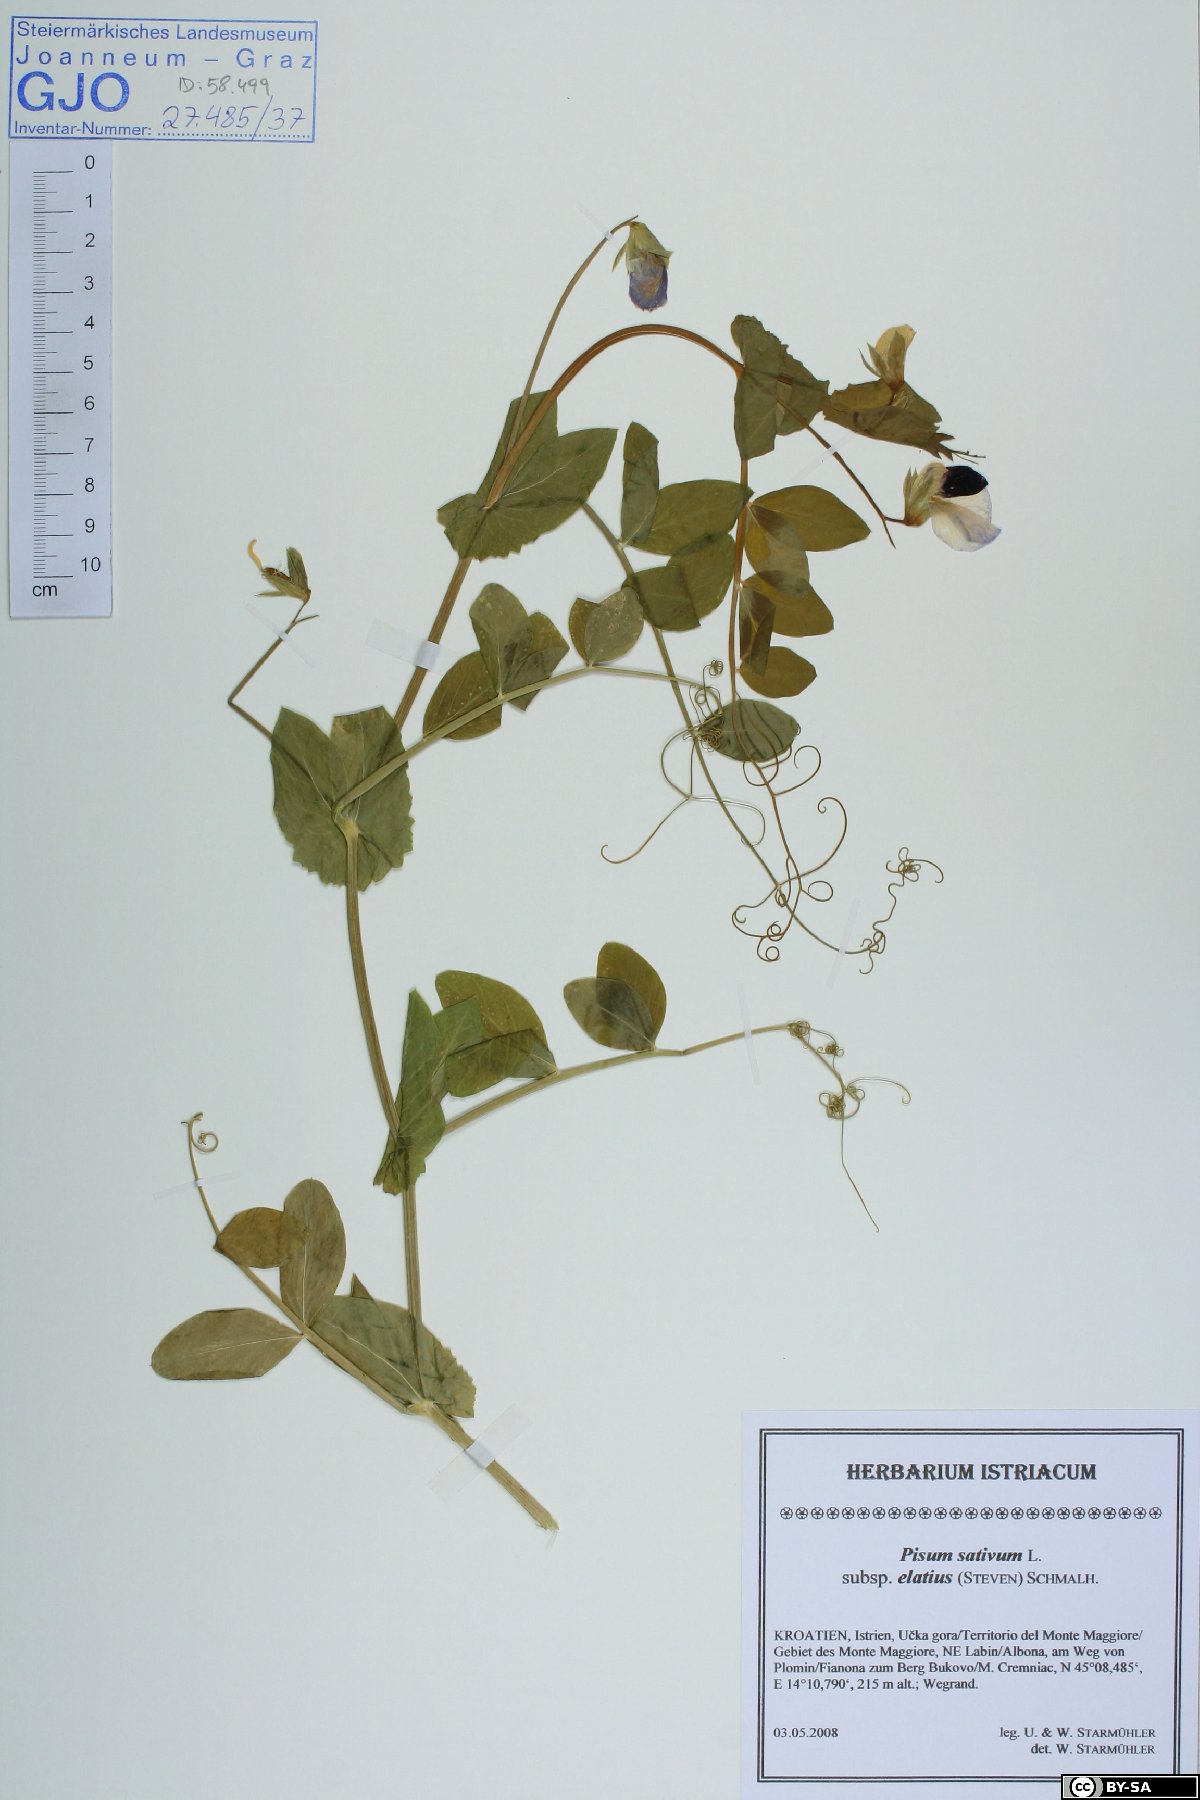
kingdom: Plantae
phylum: Tracheophyta
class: Magnoliopsida
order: Fabales
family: Fabaceae
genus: Lathyrus
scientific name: Lathyrus oleraceus
